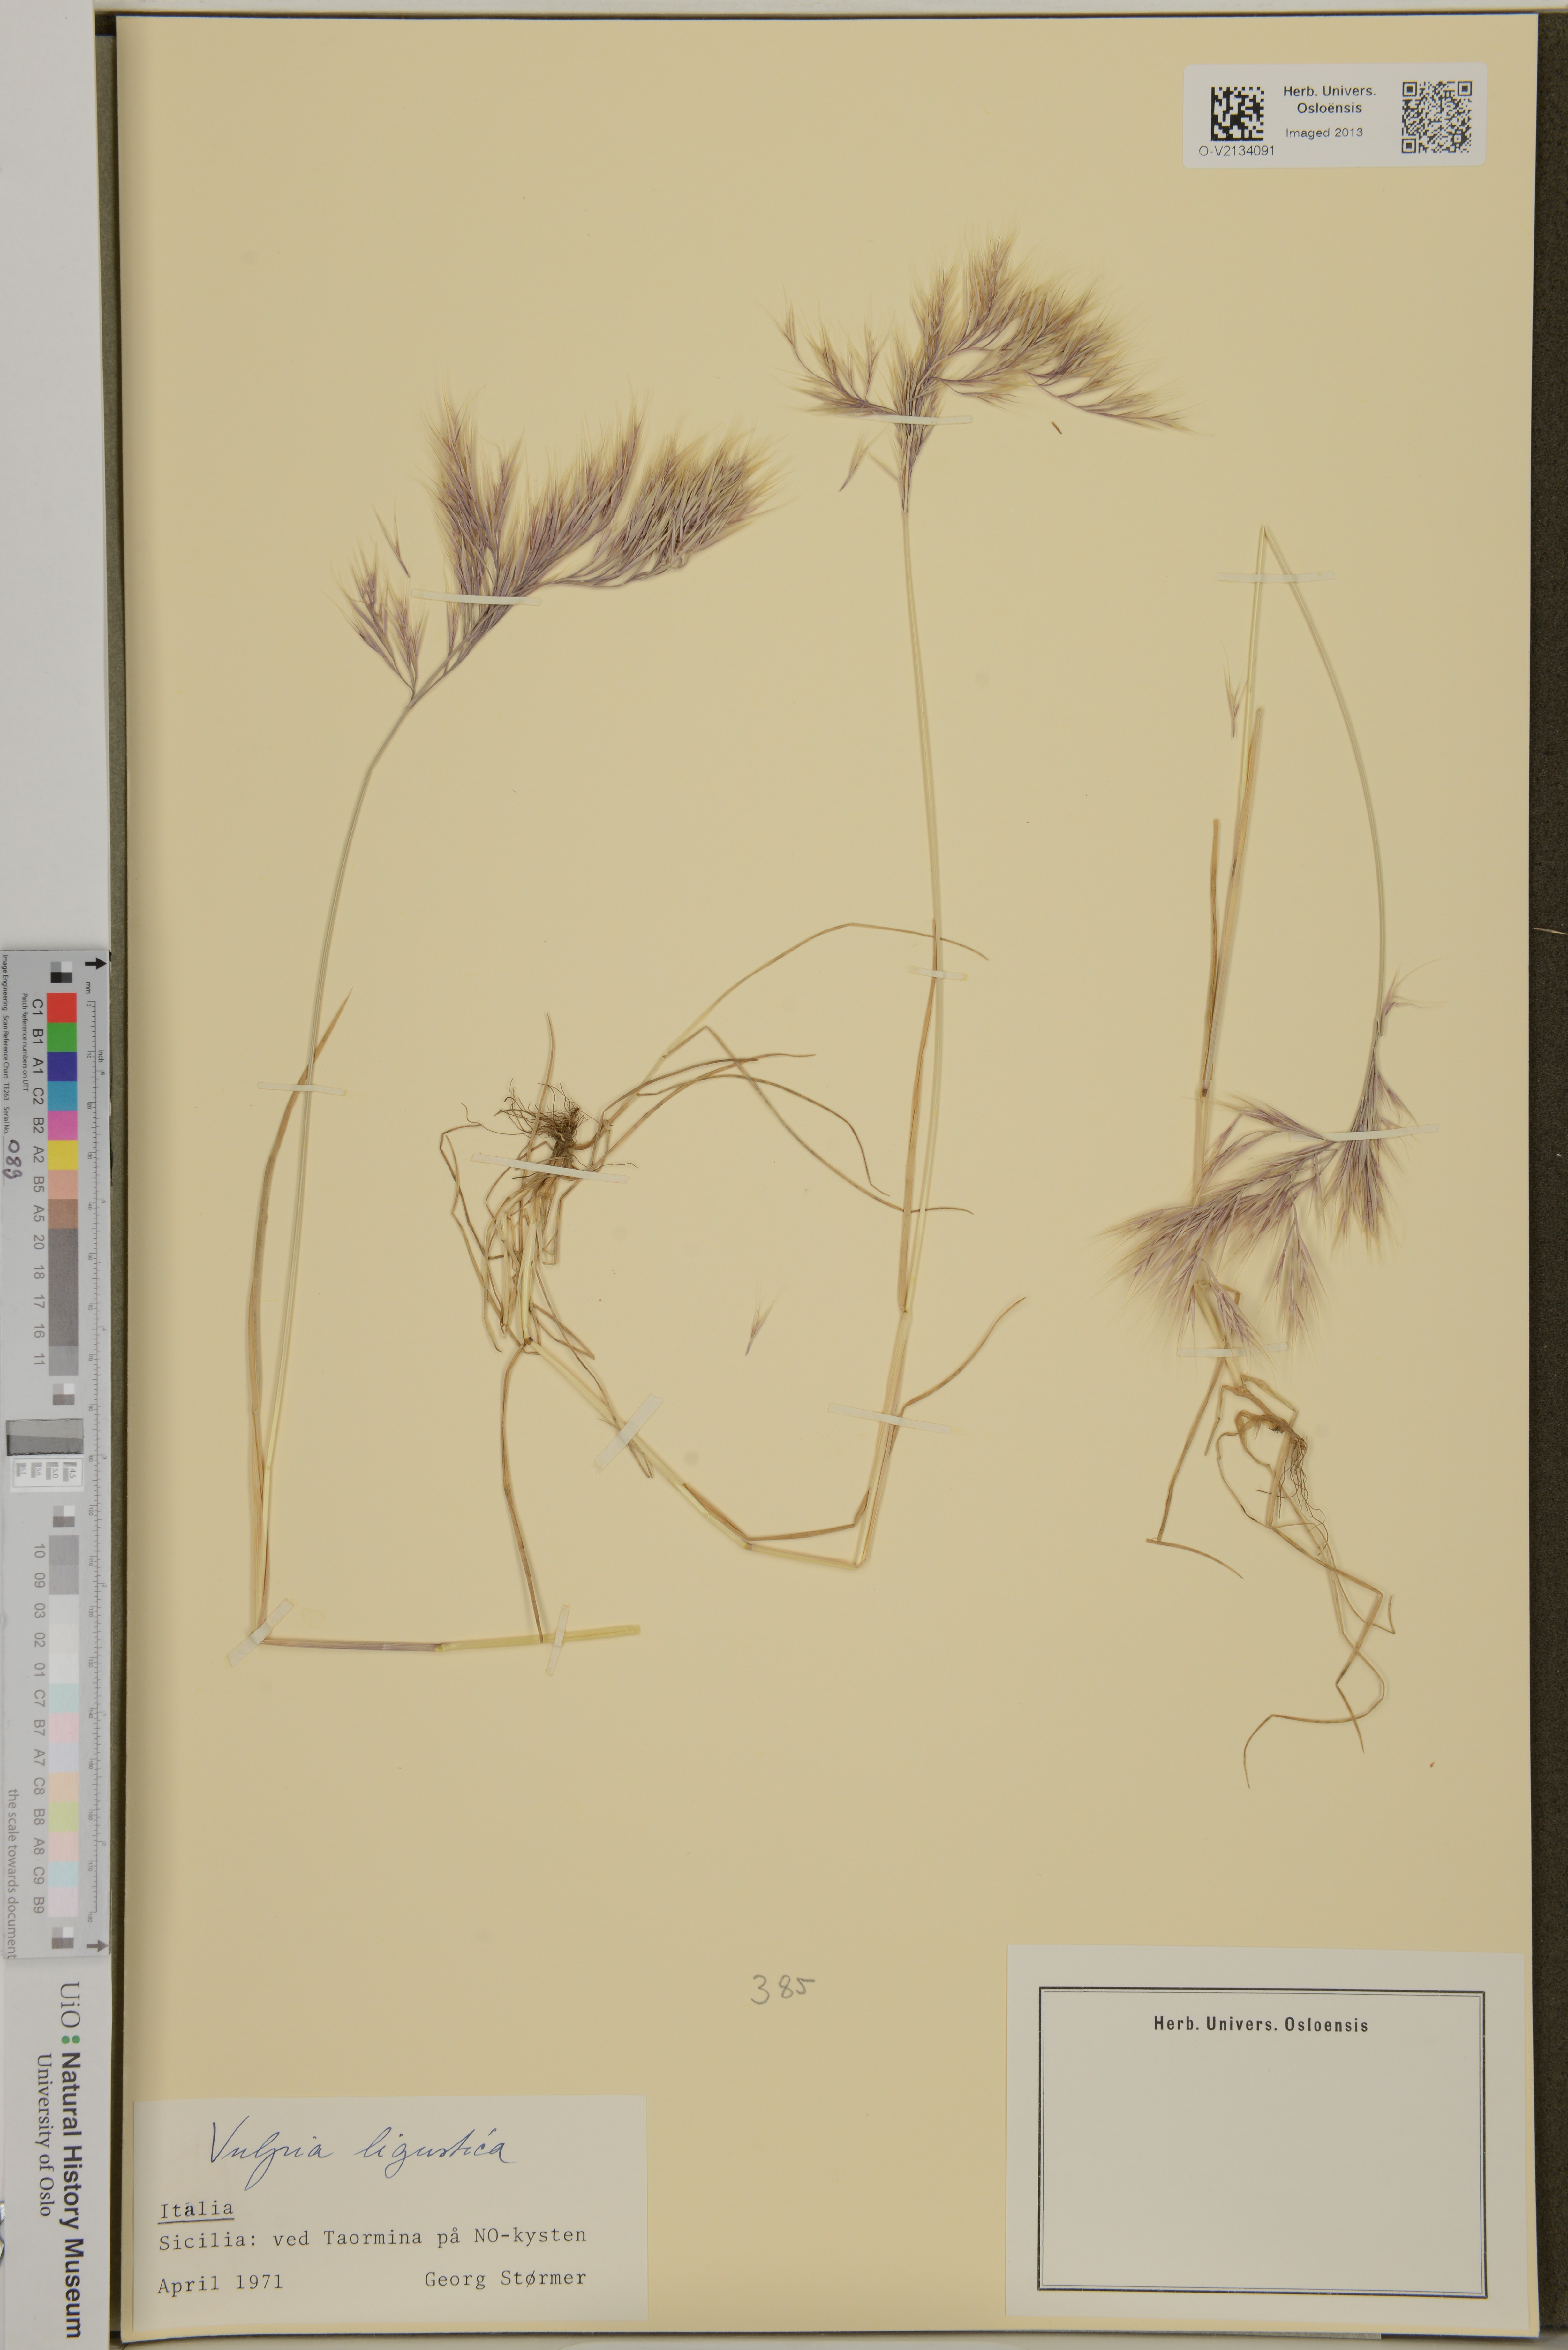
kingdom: Plantae
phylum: Tracheophyta
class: Liliopsida
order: Poales
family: Poaceae
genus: Festuca
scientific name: Festuca ligustica
